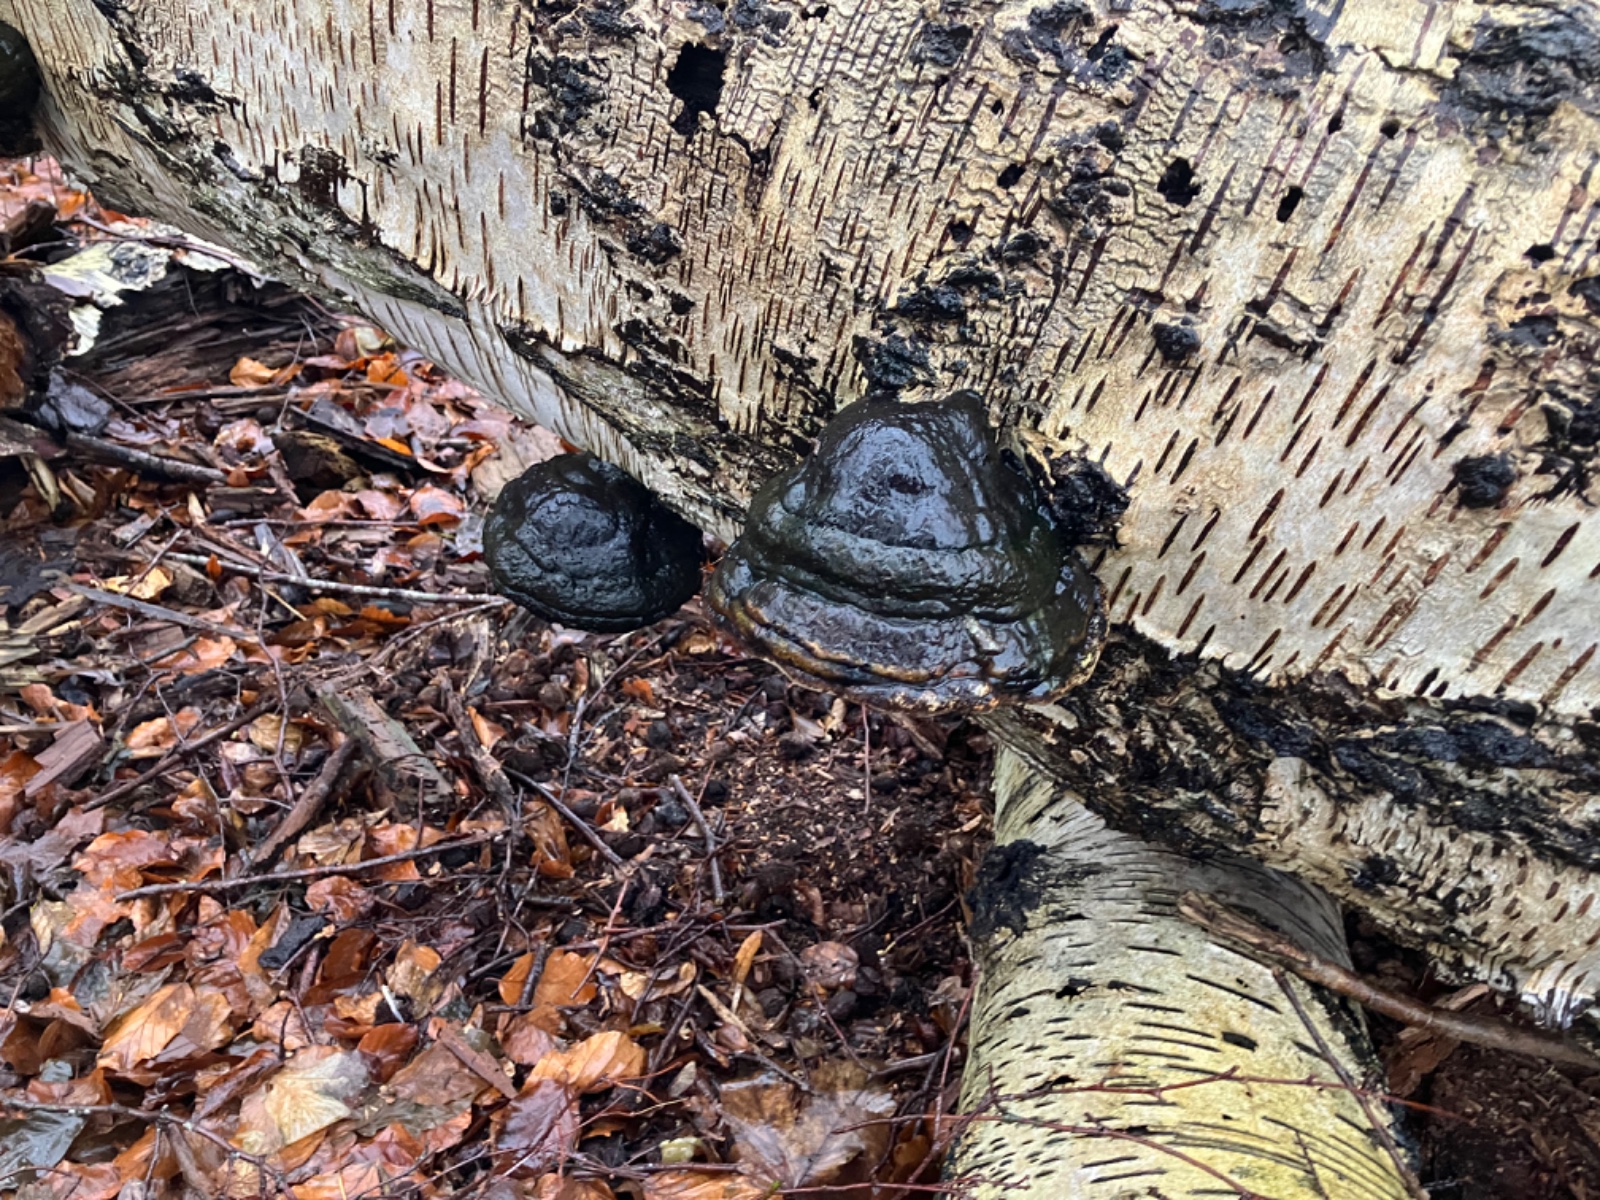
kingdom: Fungi
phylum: Basidiomycota
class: Agaricomycetes
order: Polyporales
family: Polyporaceae
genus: Fomes
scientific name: Fomes fomentarius
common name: tøndersvamp
